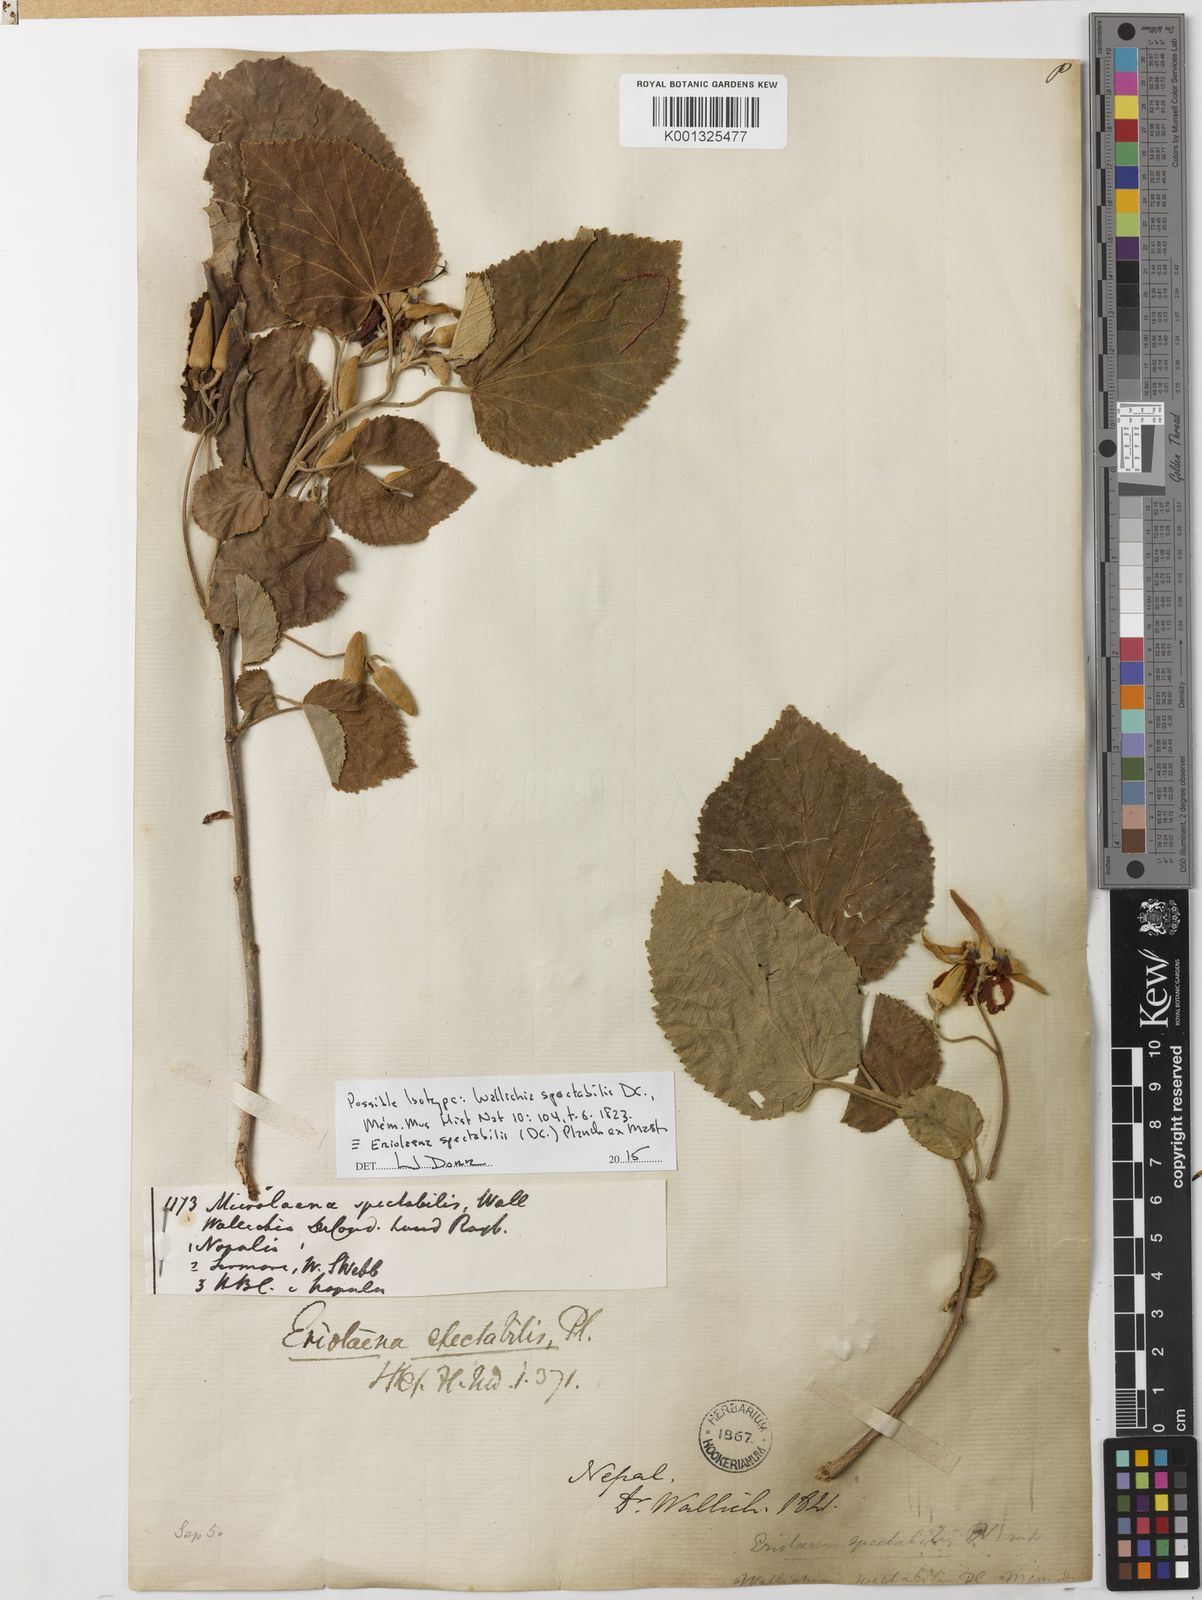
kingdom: Plantae
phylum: Tracheophyta
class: Magnoliopsida
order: Malvales
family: Malvaceae
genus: Eriolaena
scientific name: Eriolaena spectabilis
